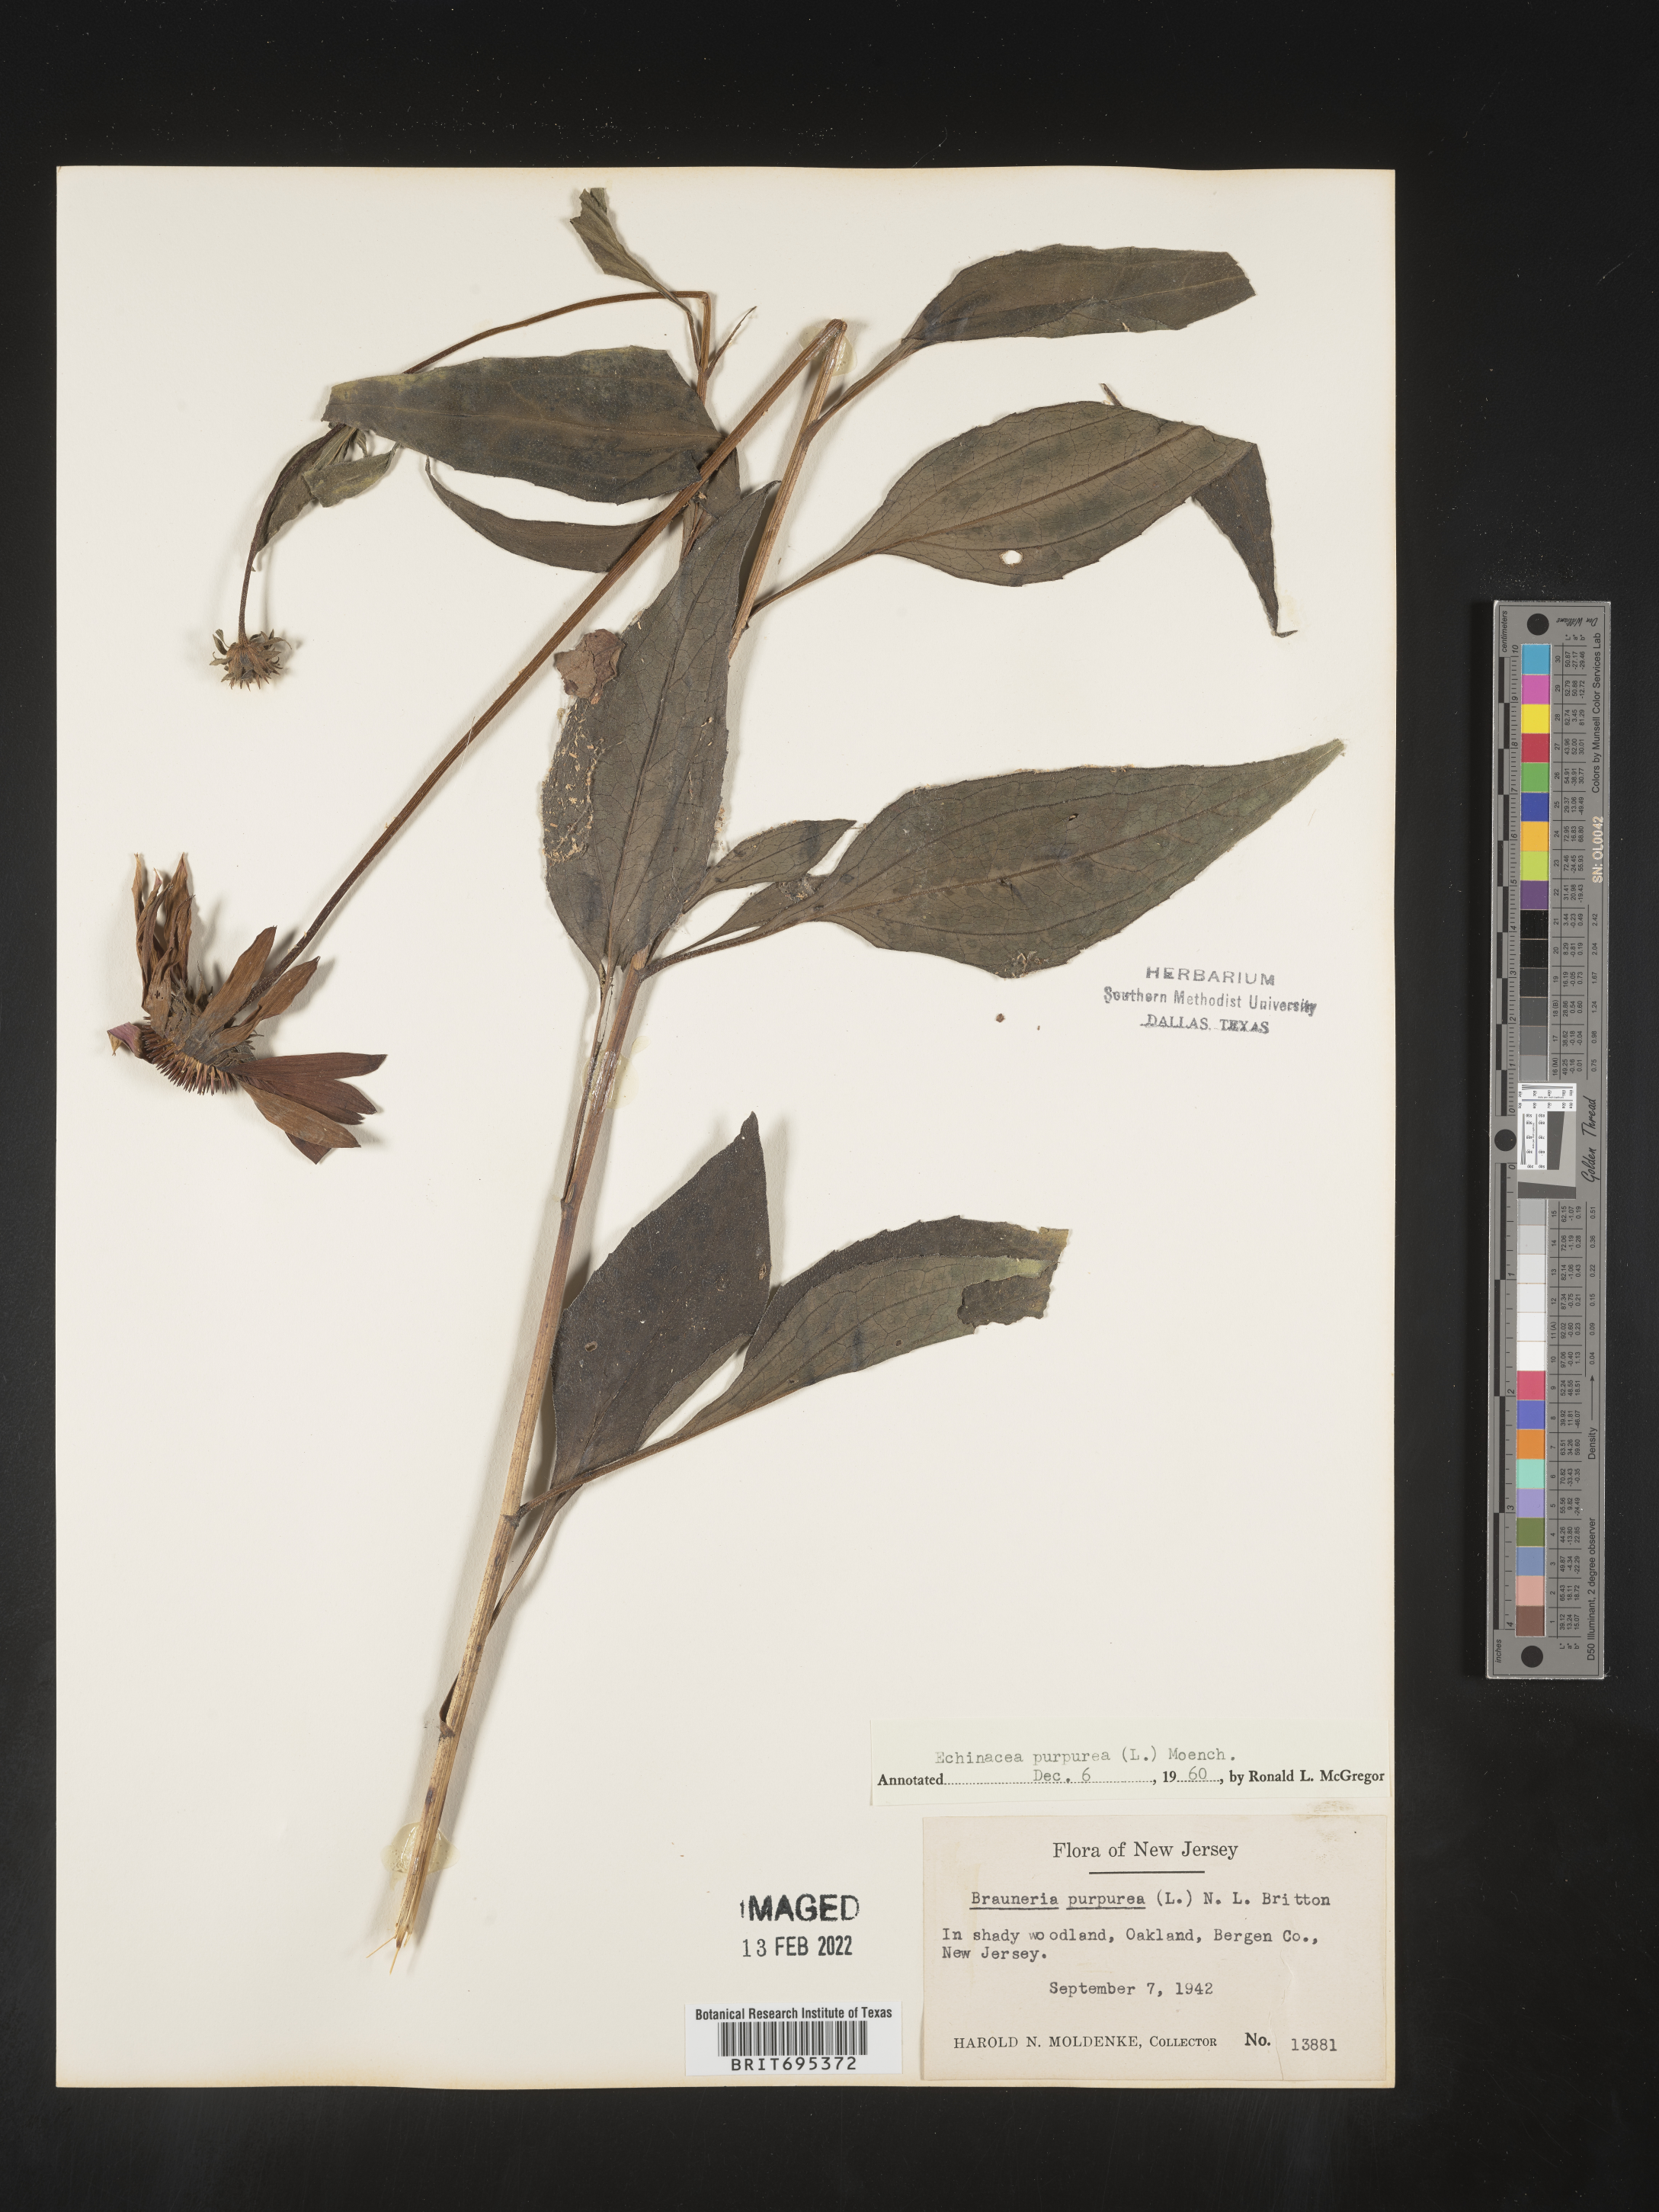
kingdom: Plantae
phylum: Tracheophyta
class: Magnoliopsida
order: Asterales
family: Asteraceae
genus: Echinacea
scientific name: Echinacea purpurea
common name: Broad-leaved purple coneflower
